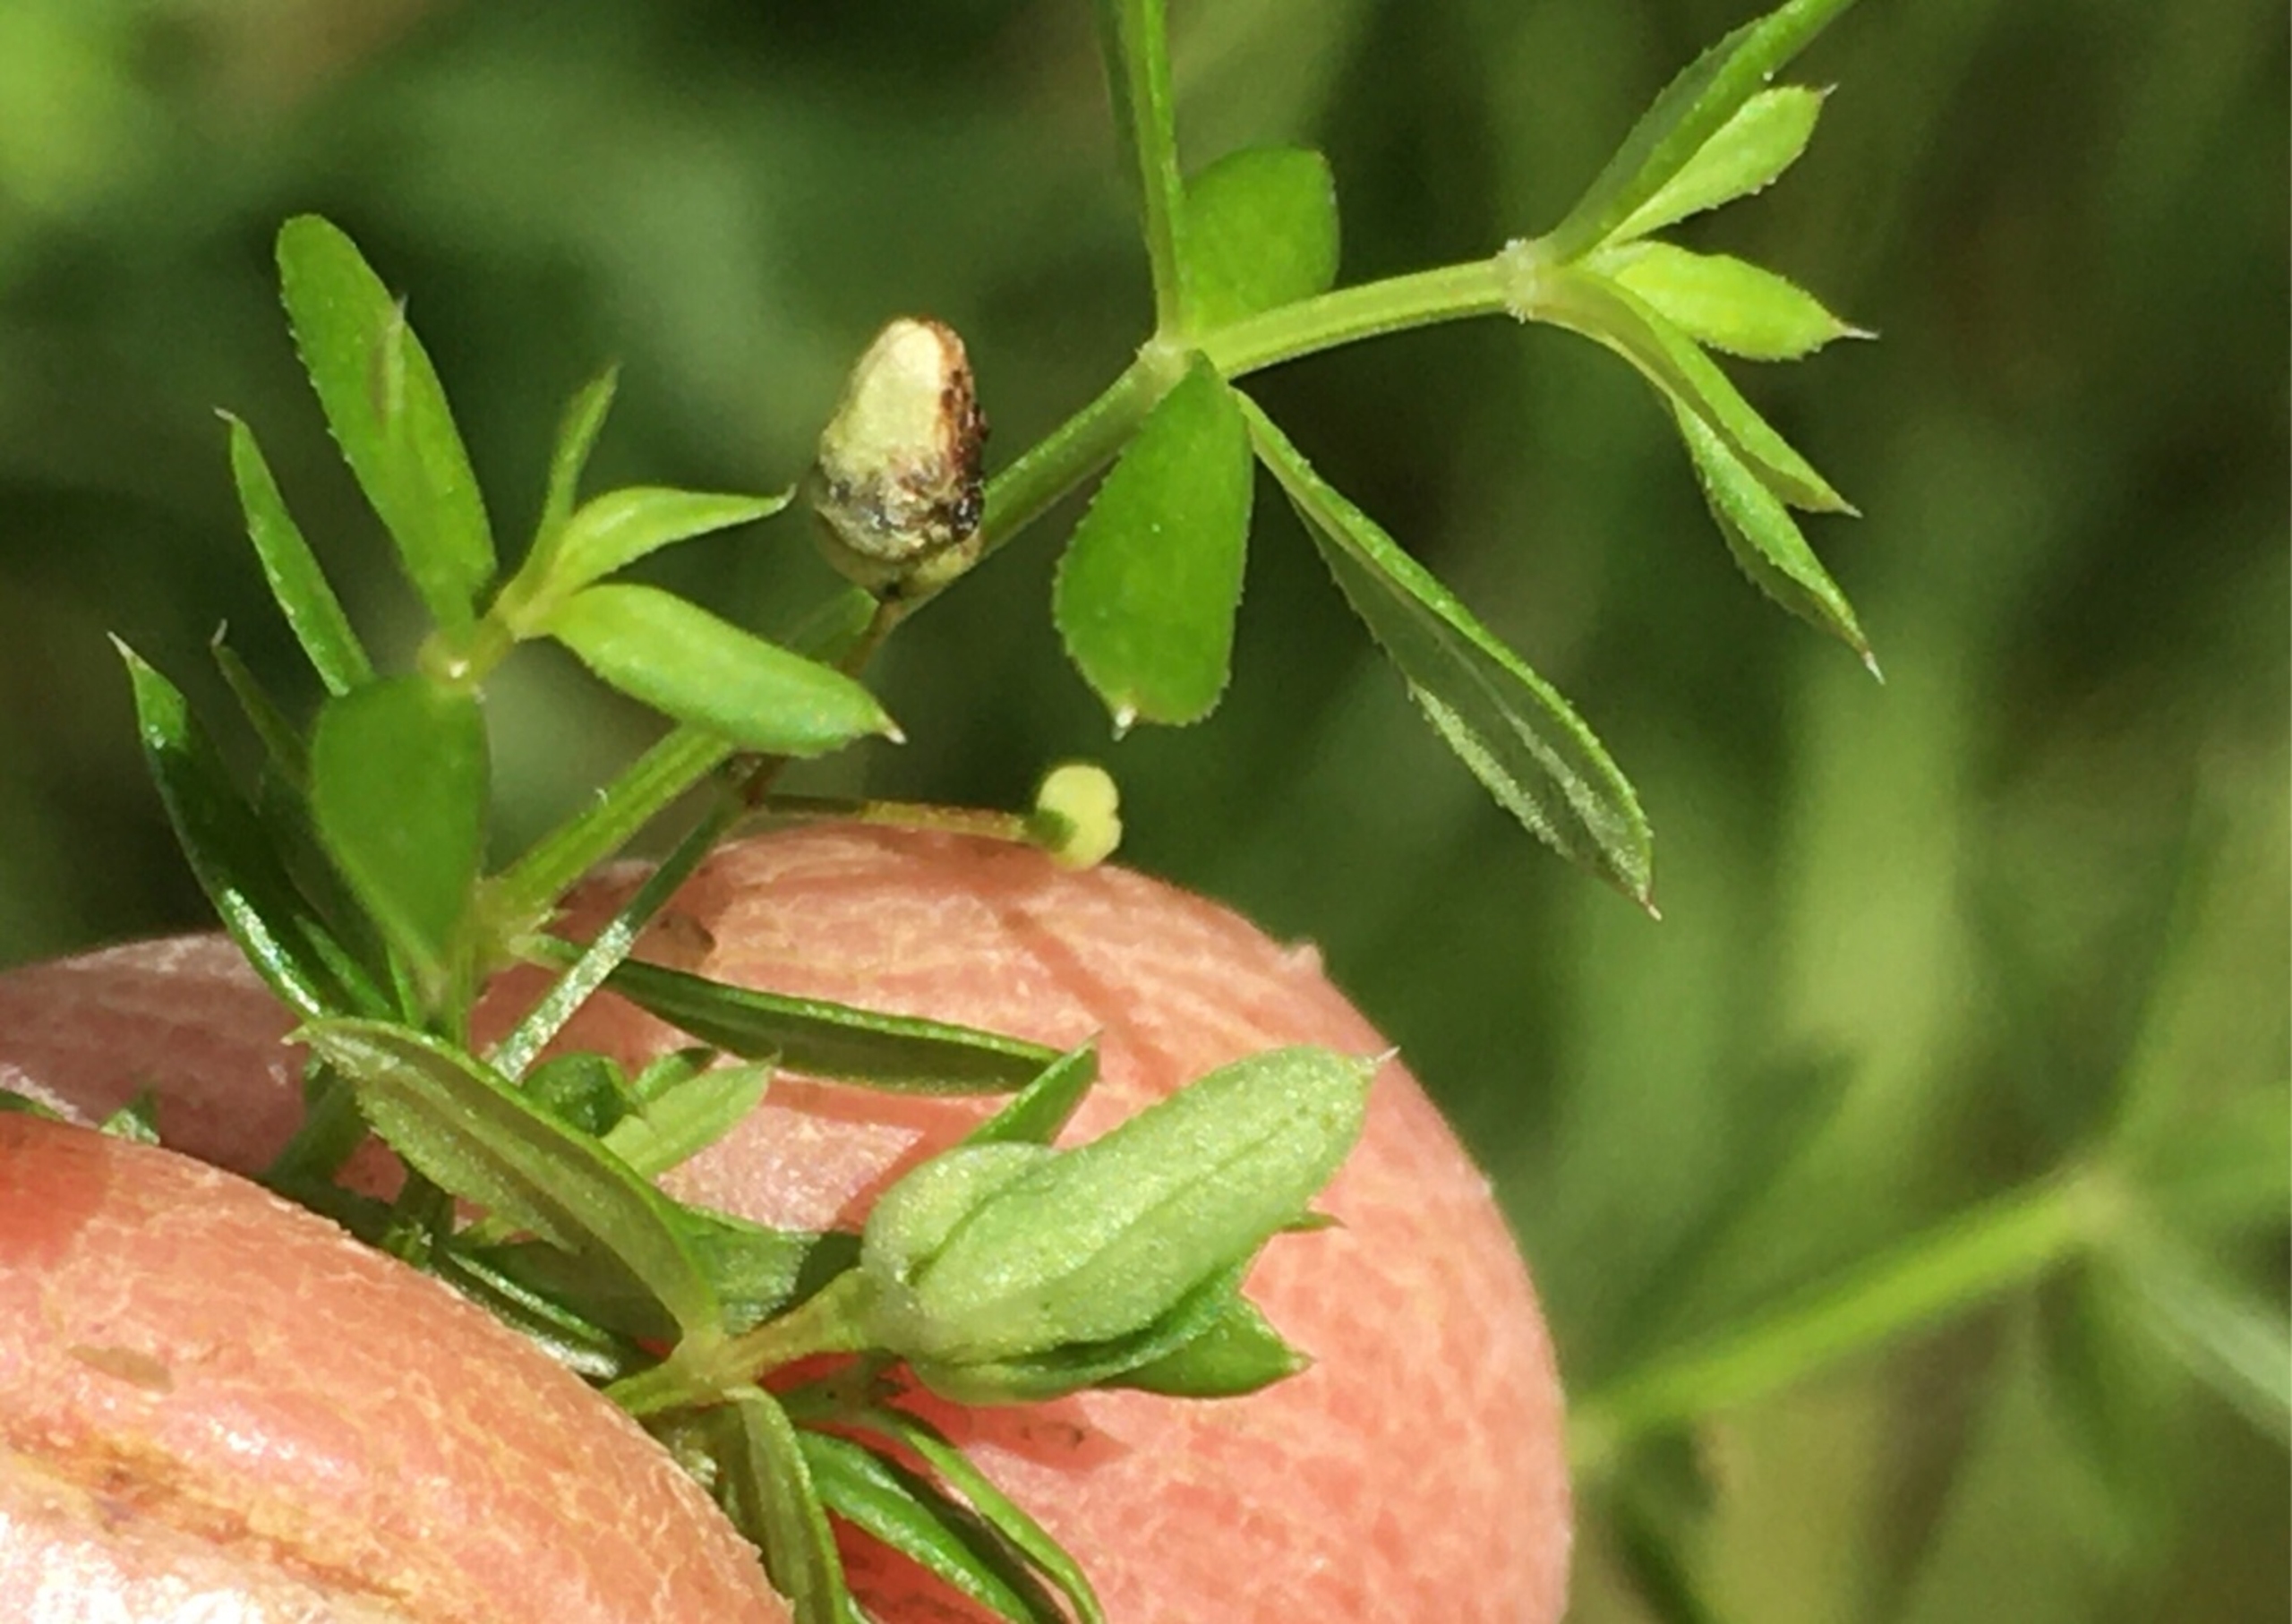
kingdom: Animalia
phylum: Arthropoda
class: Insecta
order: Diptera
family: Cecidomyiidae
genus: Schizomyia
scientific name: Schizomyia galiorum
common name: Snerreblomstgalmyg
